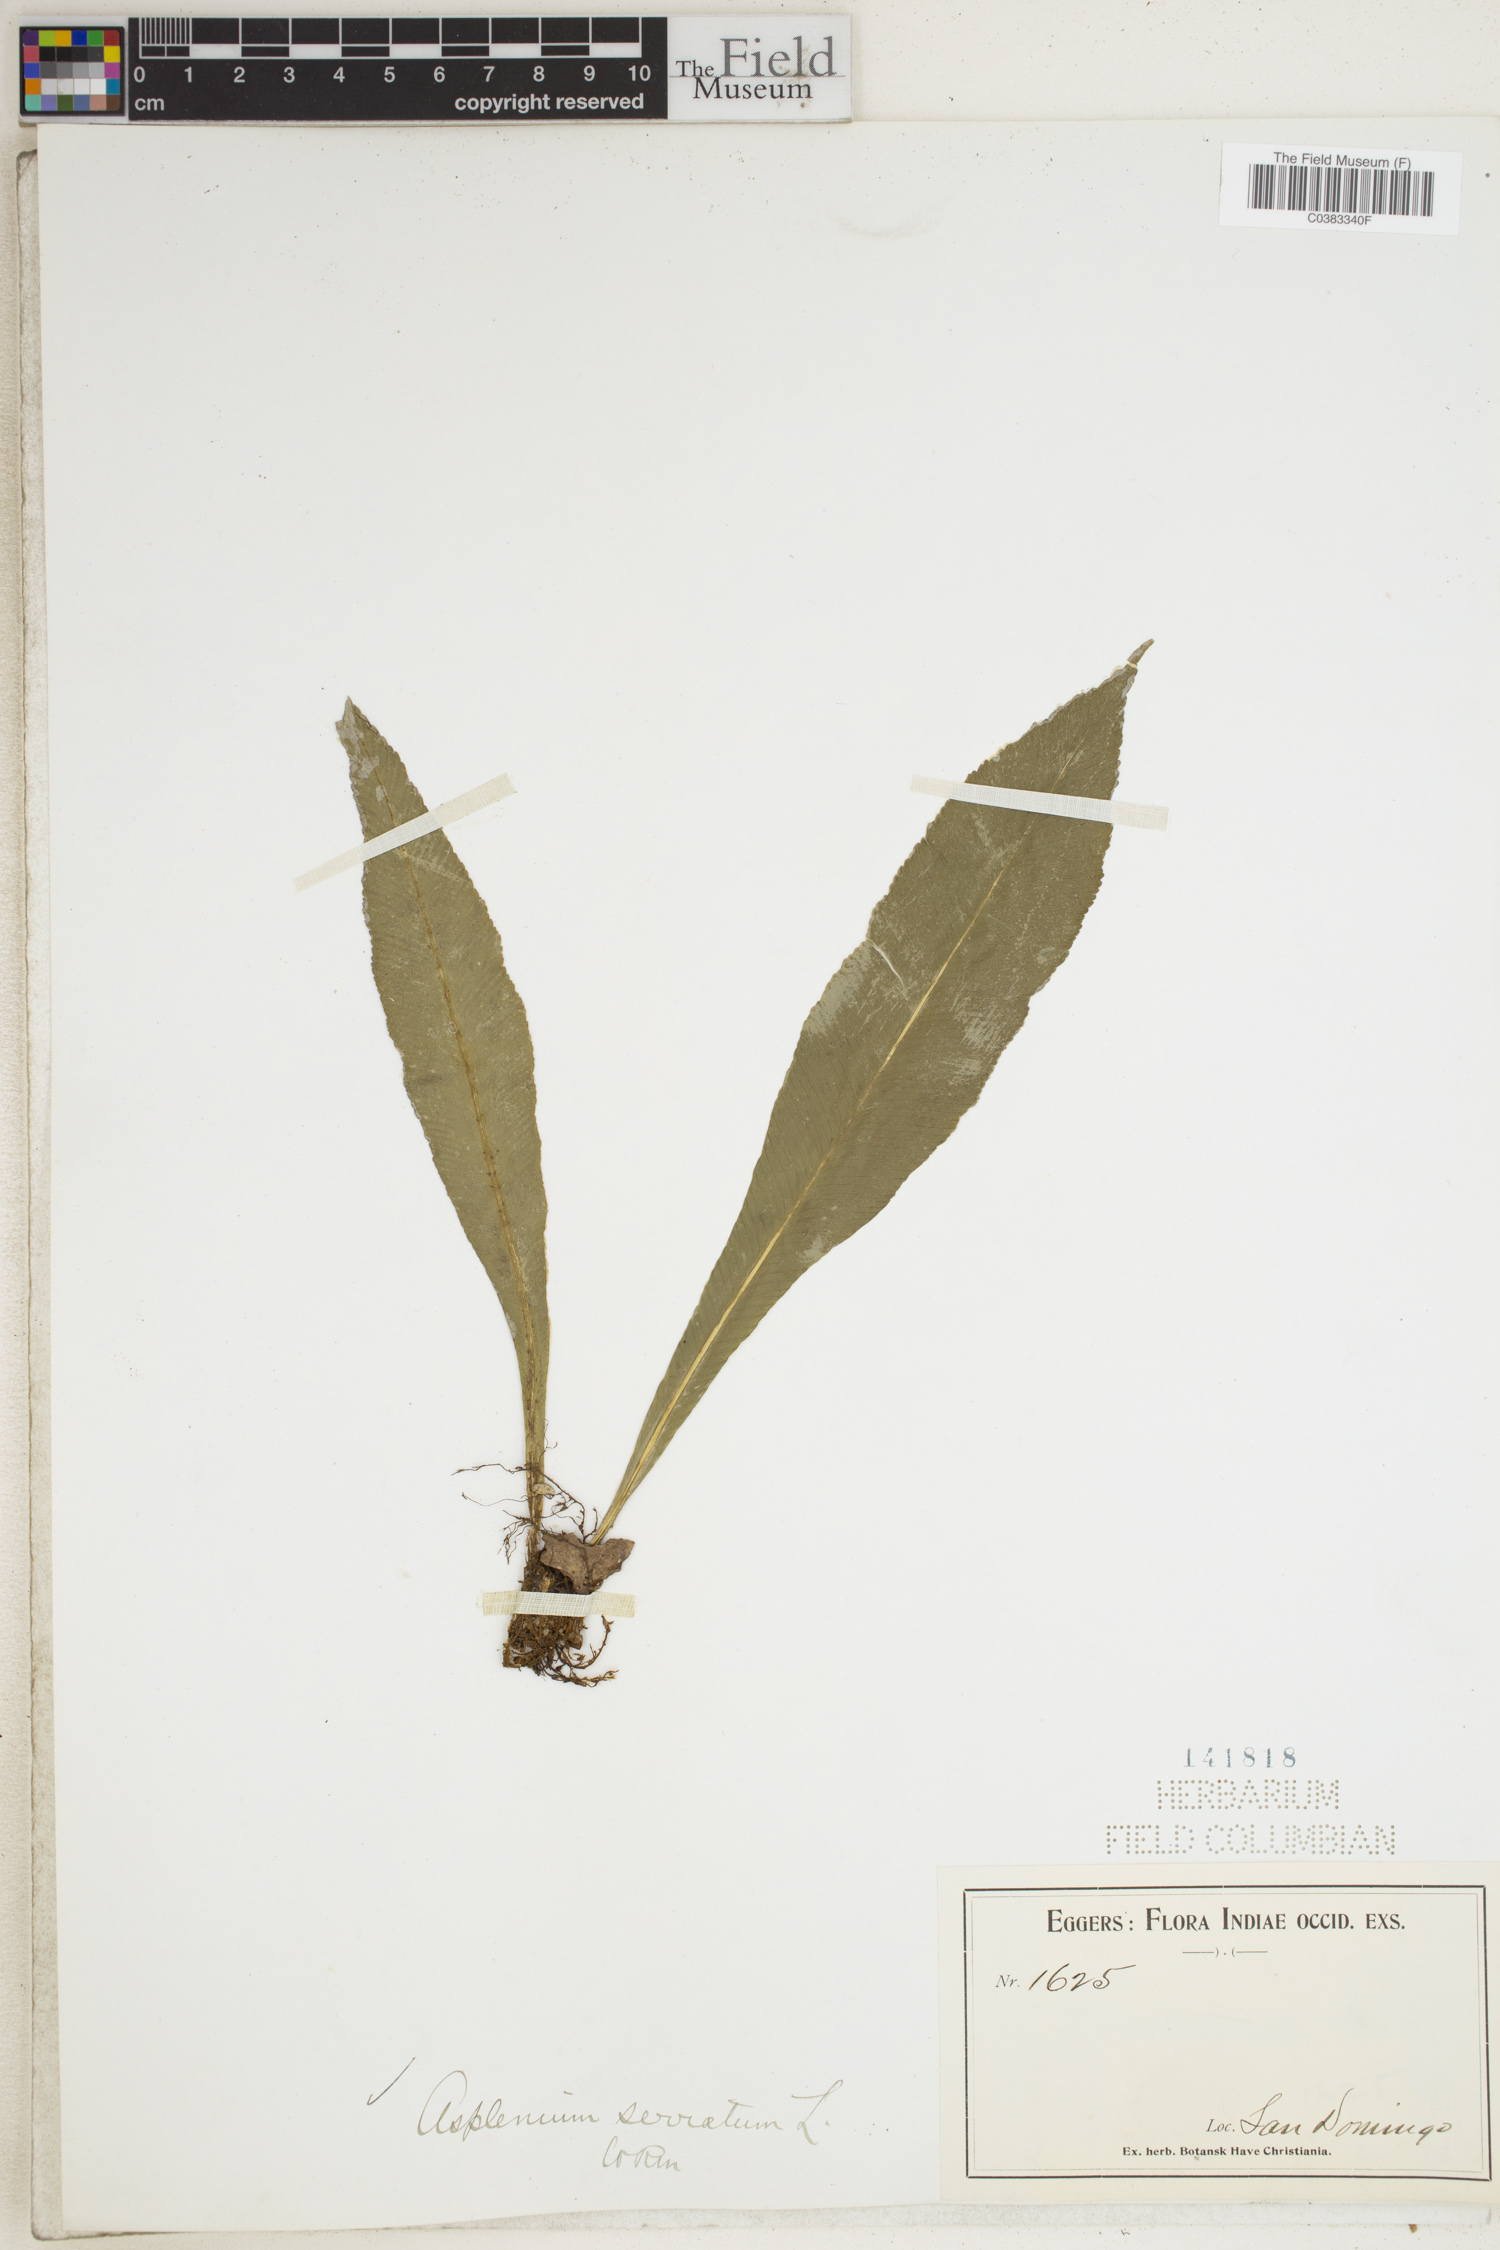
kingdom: Plantae
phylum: Tracheophyta
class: Polypodiopsida
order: Polypodiales
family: Aspleniaceae
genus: Asplenium
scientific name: Asplenium serratum
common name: Wild birdnest fern
